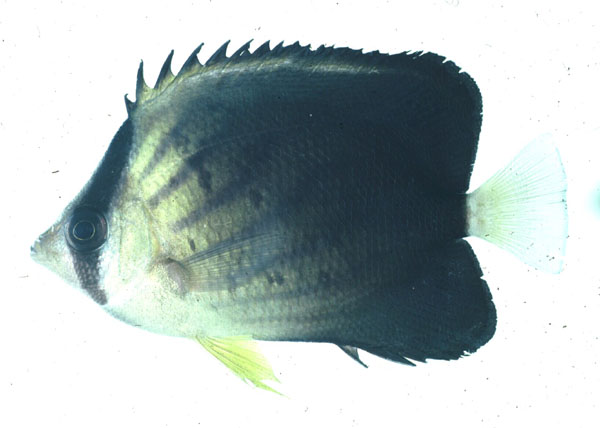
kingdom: Animalia
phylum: Chordata
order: Perciformes
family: Chaetodontidae
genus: Chaetodon
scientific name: Chaetodon blackburnii
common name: Blackburn's butterflyfish
